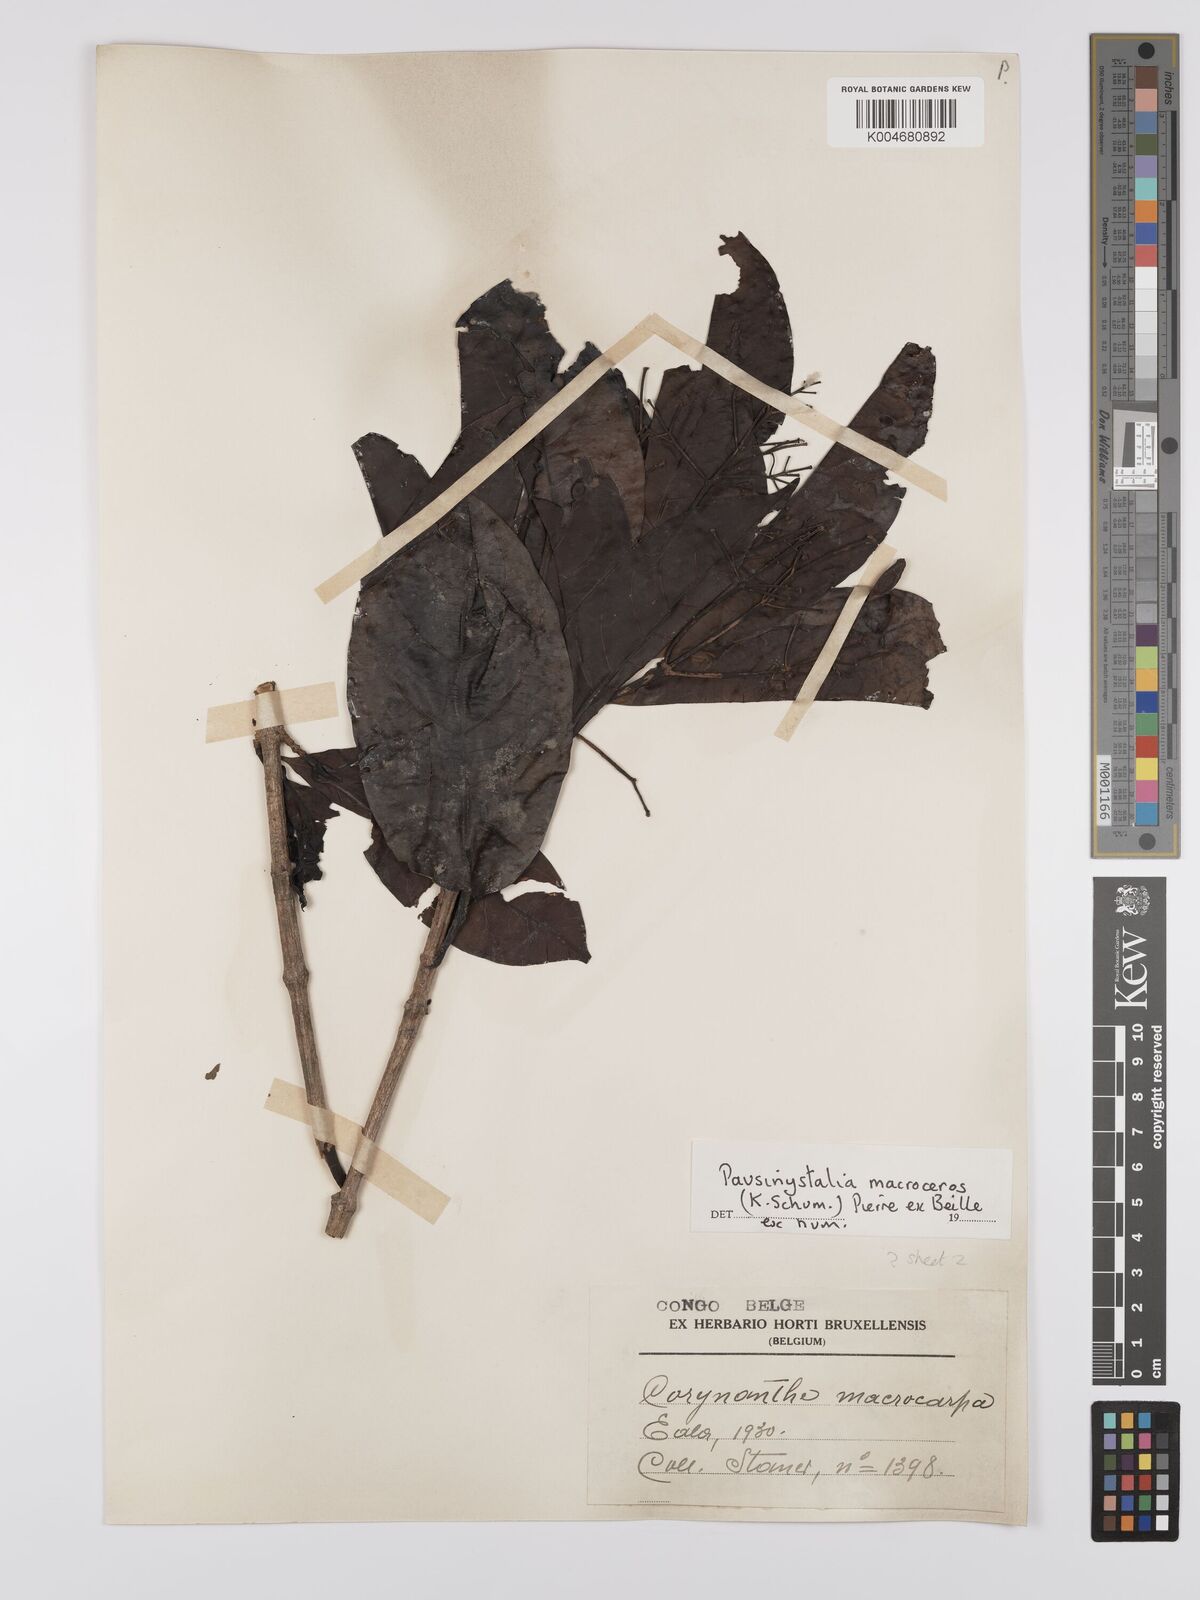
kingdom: Plantae
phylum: Tracheophyta
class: Magnoliopsida
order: Gentianales
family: Rubiaceae
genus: Corynanthe
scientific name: Corynanthe macroceras
